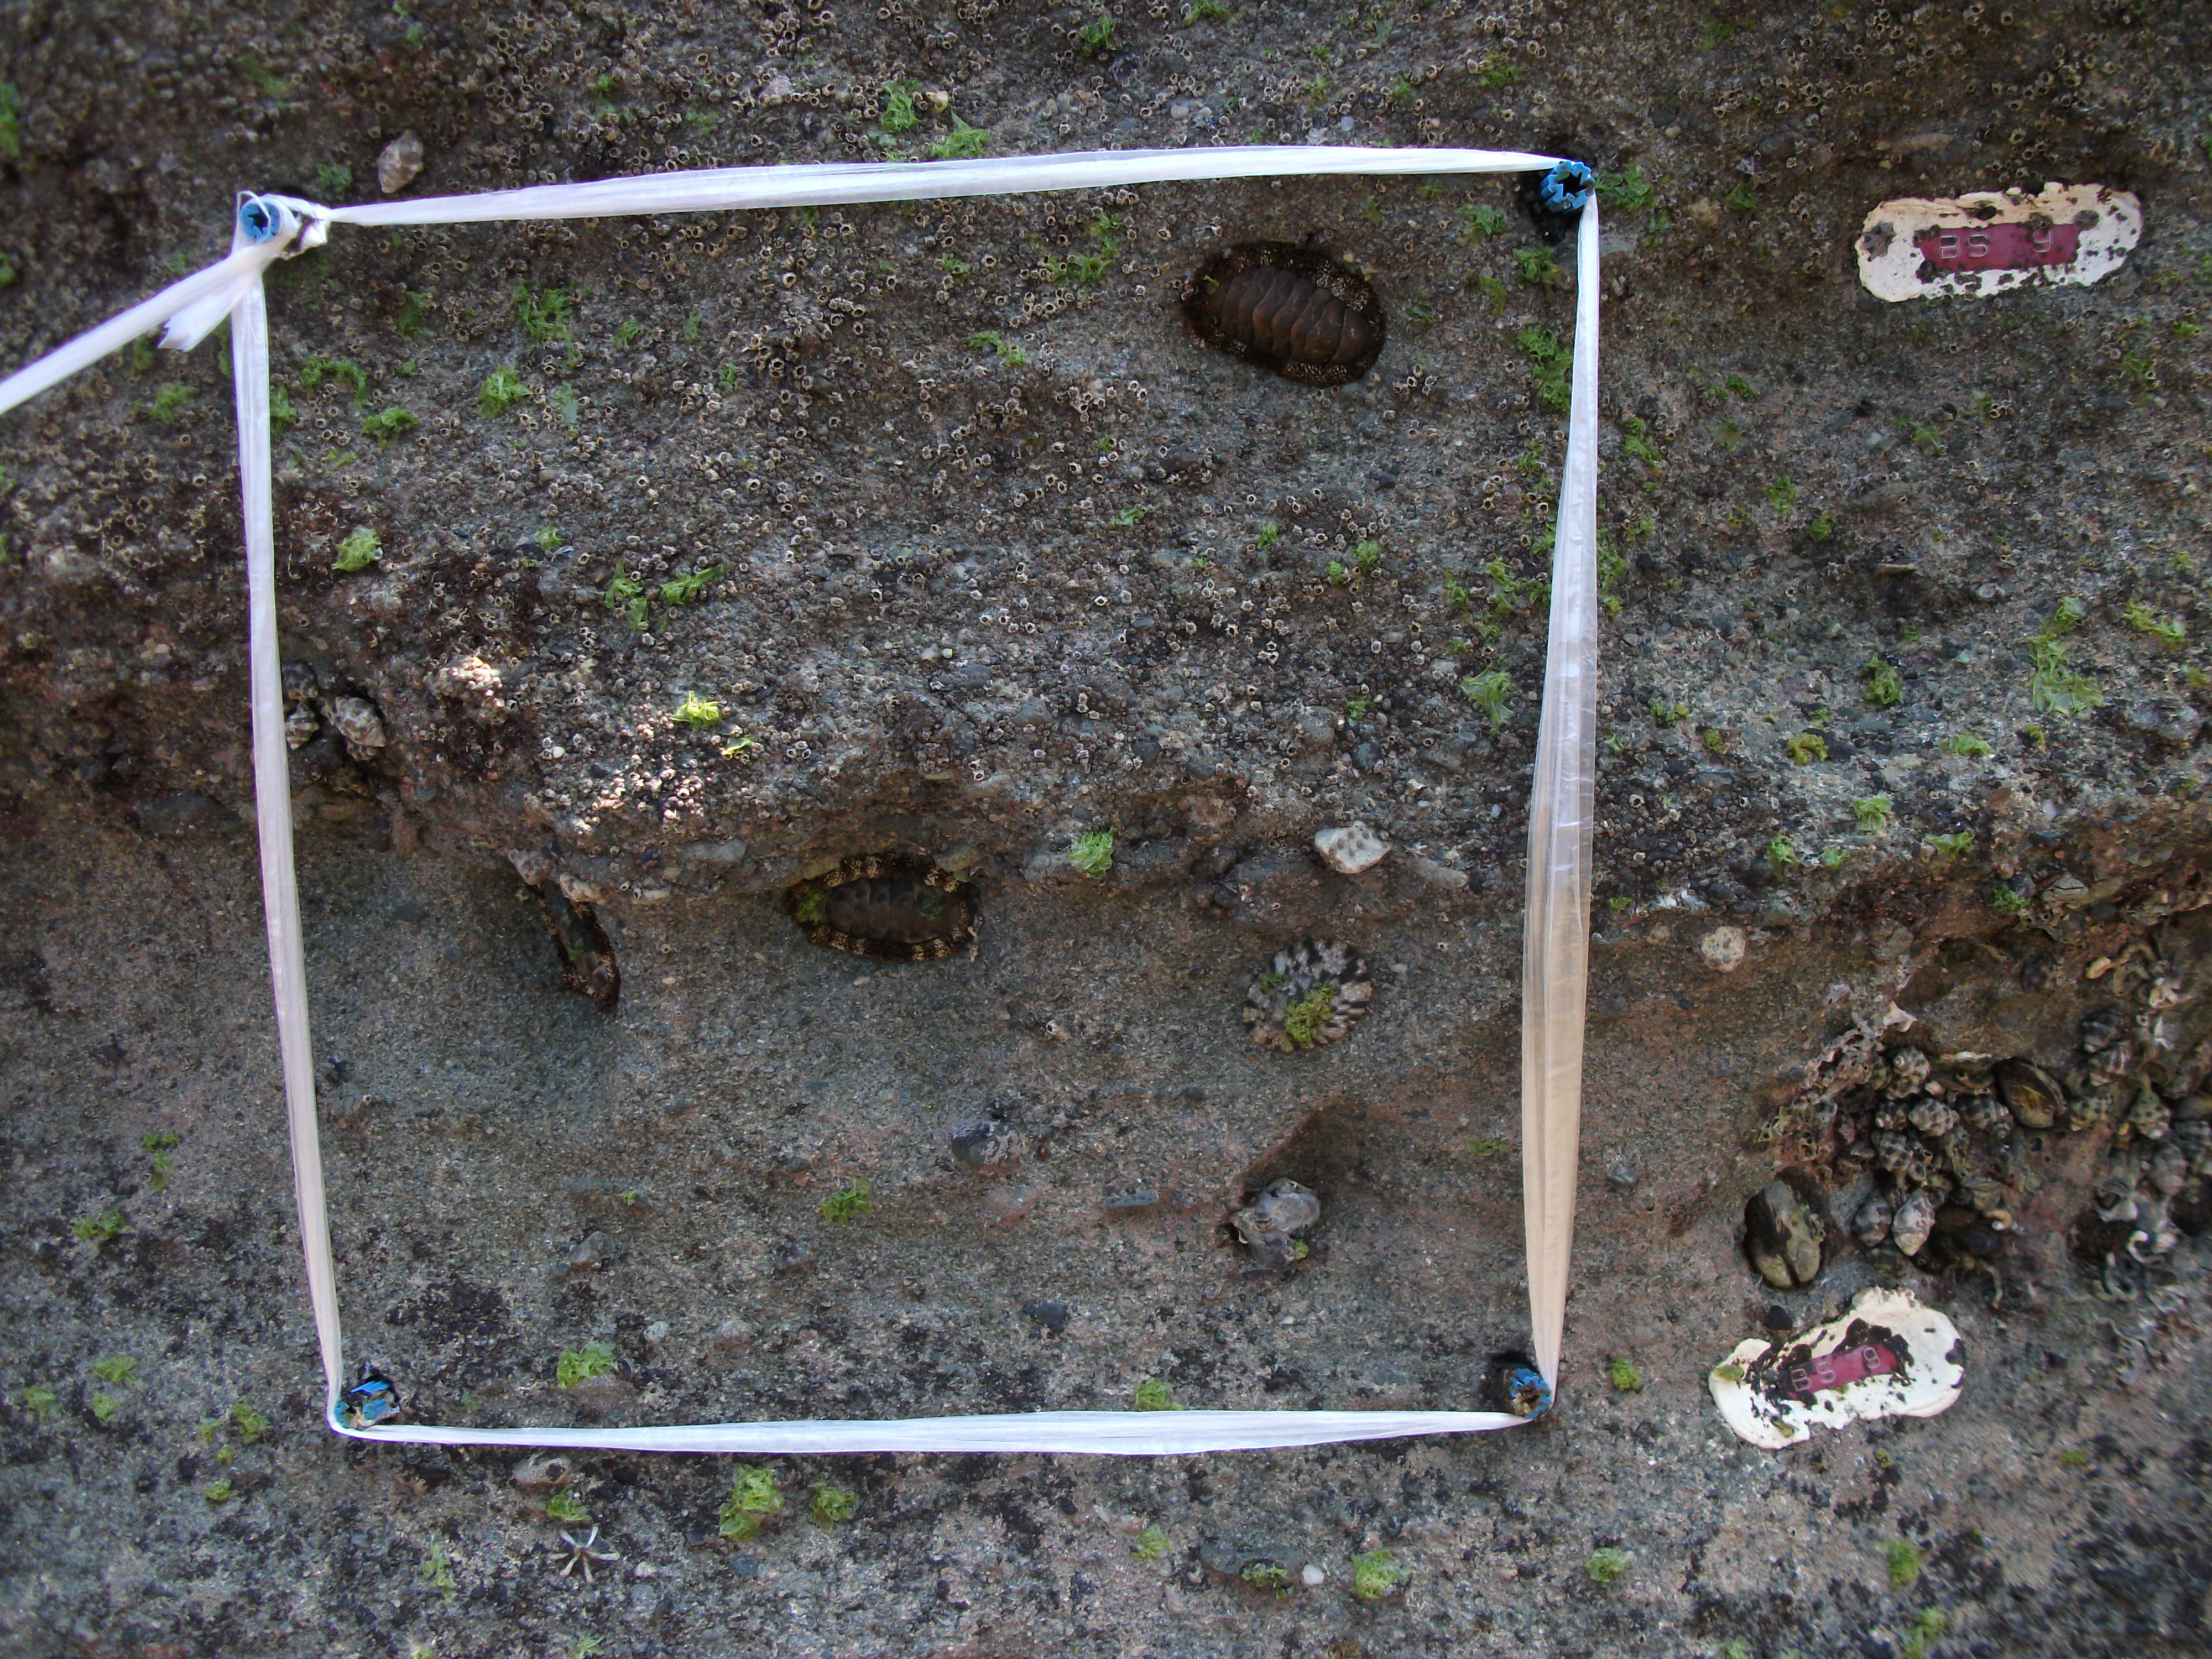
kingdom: Animalia
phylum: Arthropoda
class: Maxillopoda
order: Sessilia
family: Chthamalidae
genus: Chthamalus
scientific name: Chthamalus challengeri
